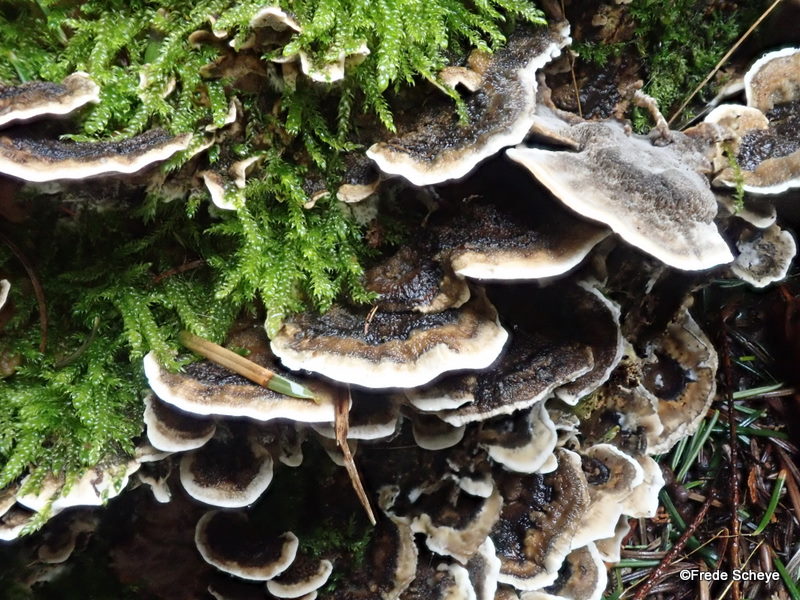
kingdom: Fungi
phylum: Basidiomycota
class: Agaricomycetes
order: Polyporales
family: Phanerochaetaceae
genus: Bjerkandera
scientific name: Bjerkandera adusta
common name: sveden sodporesvamp
